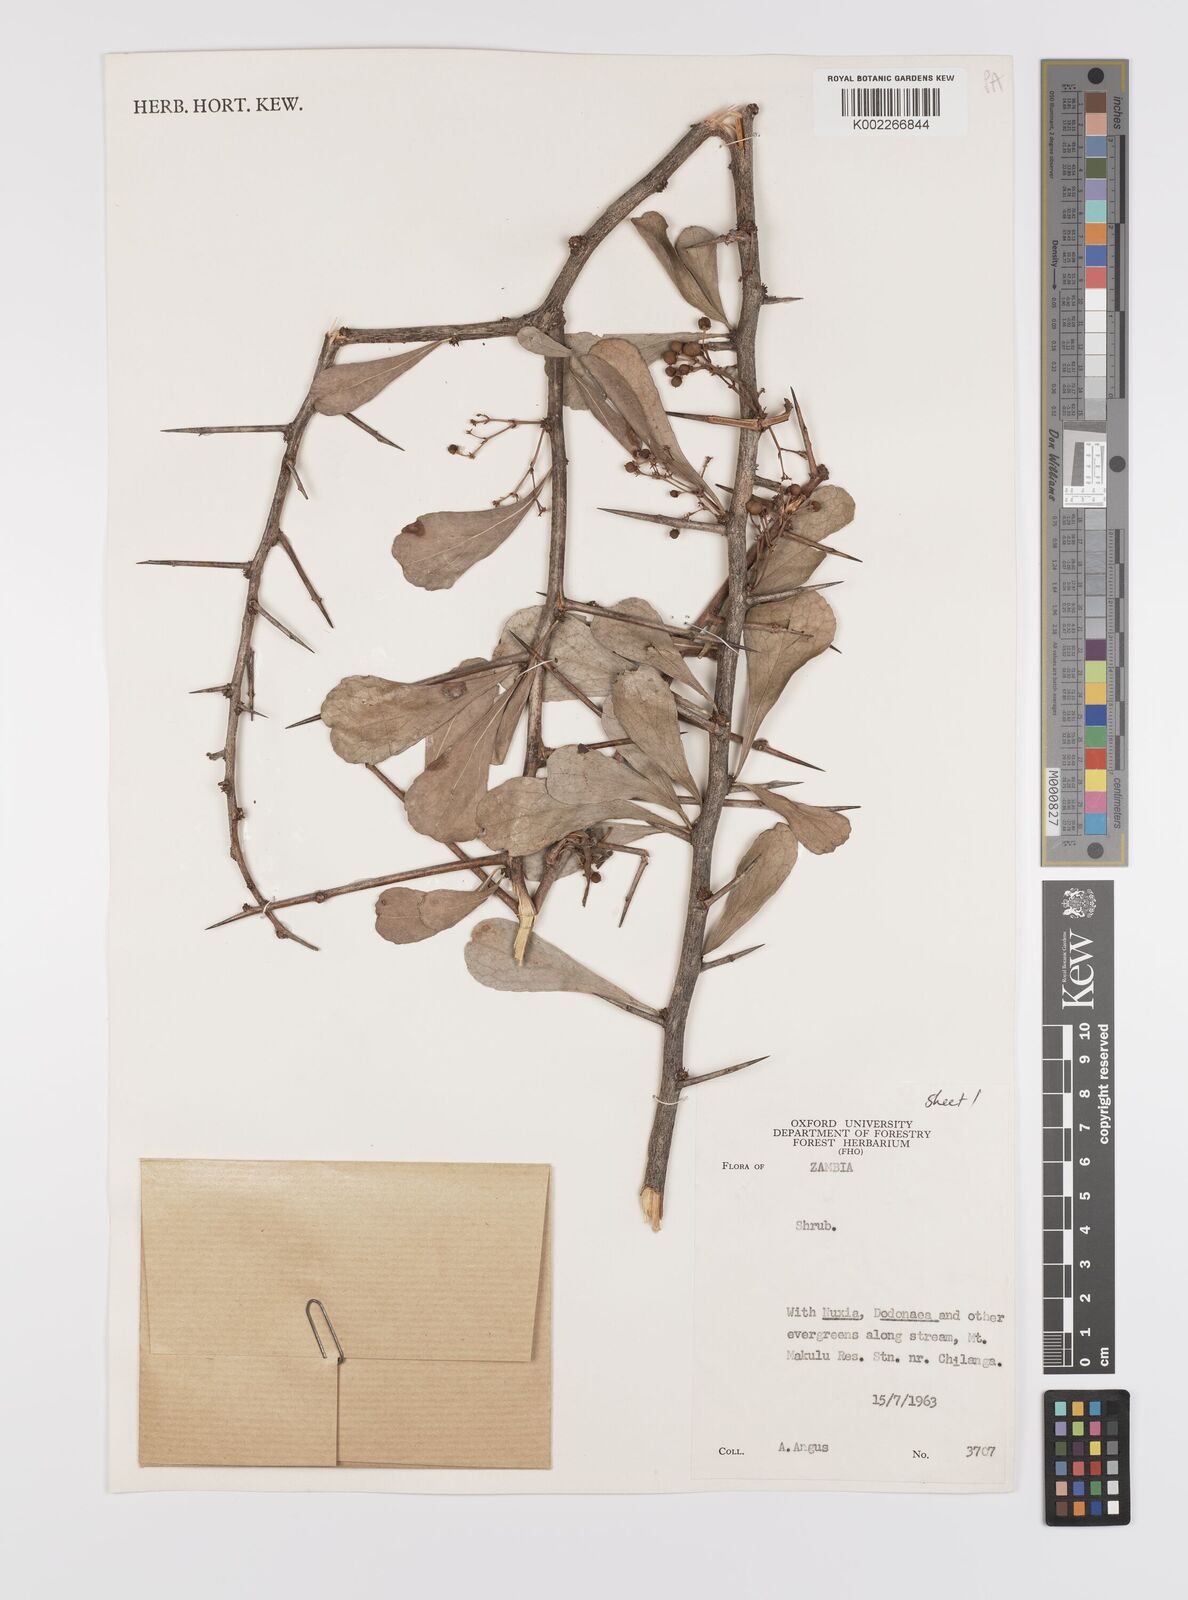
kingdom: Plantae
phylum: Tracheophyta
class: Magnoliopsida
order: Celastrales
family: Celastraceae
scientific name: Celastraceae
